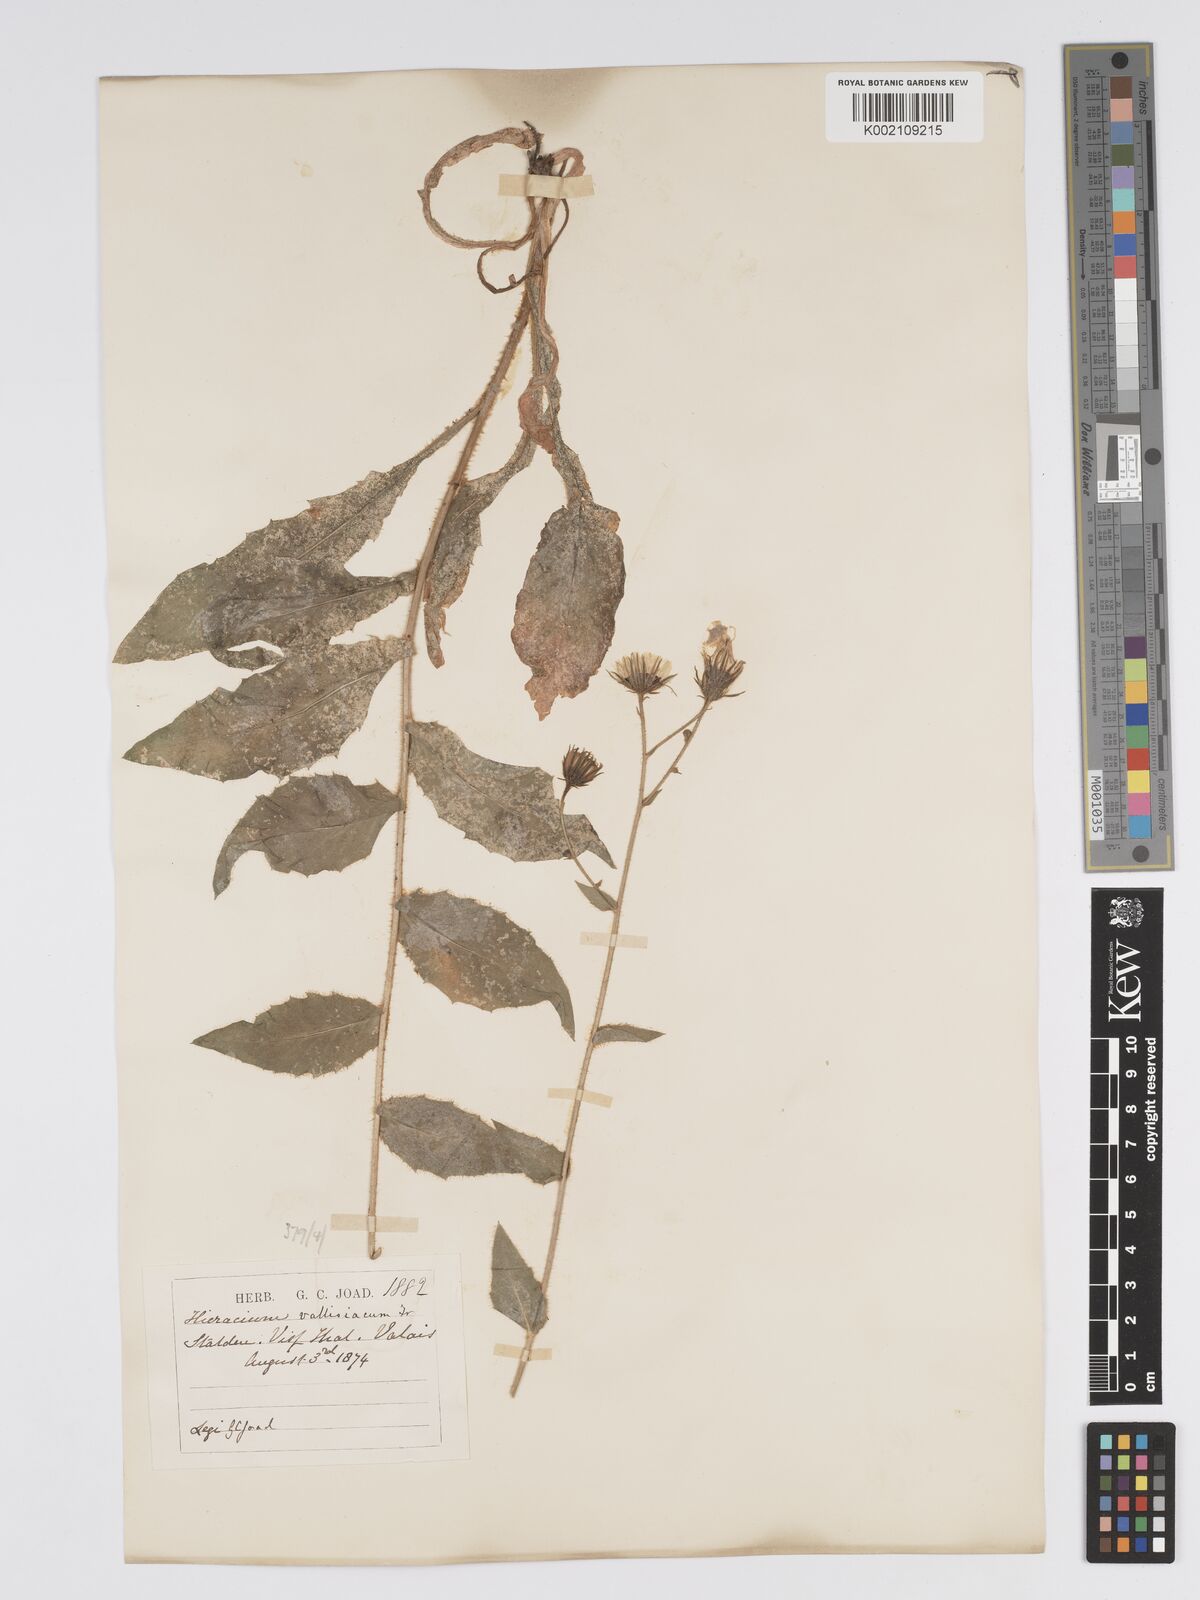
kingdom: Plantae
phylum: Tracheophyta
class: Magnoliopsida
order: Asterales
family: Asteraceae
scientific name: Asteraceae
